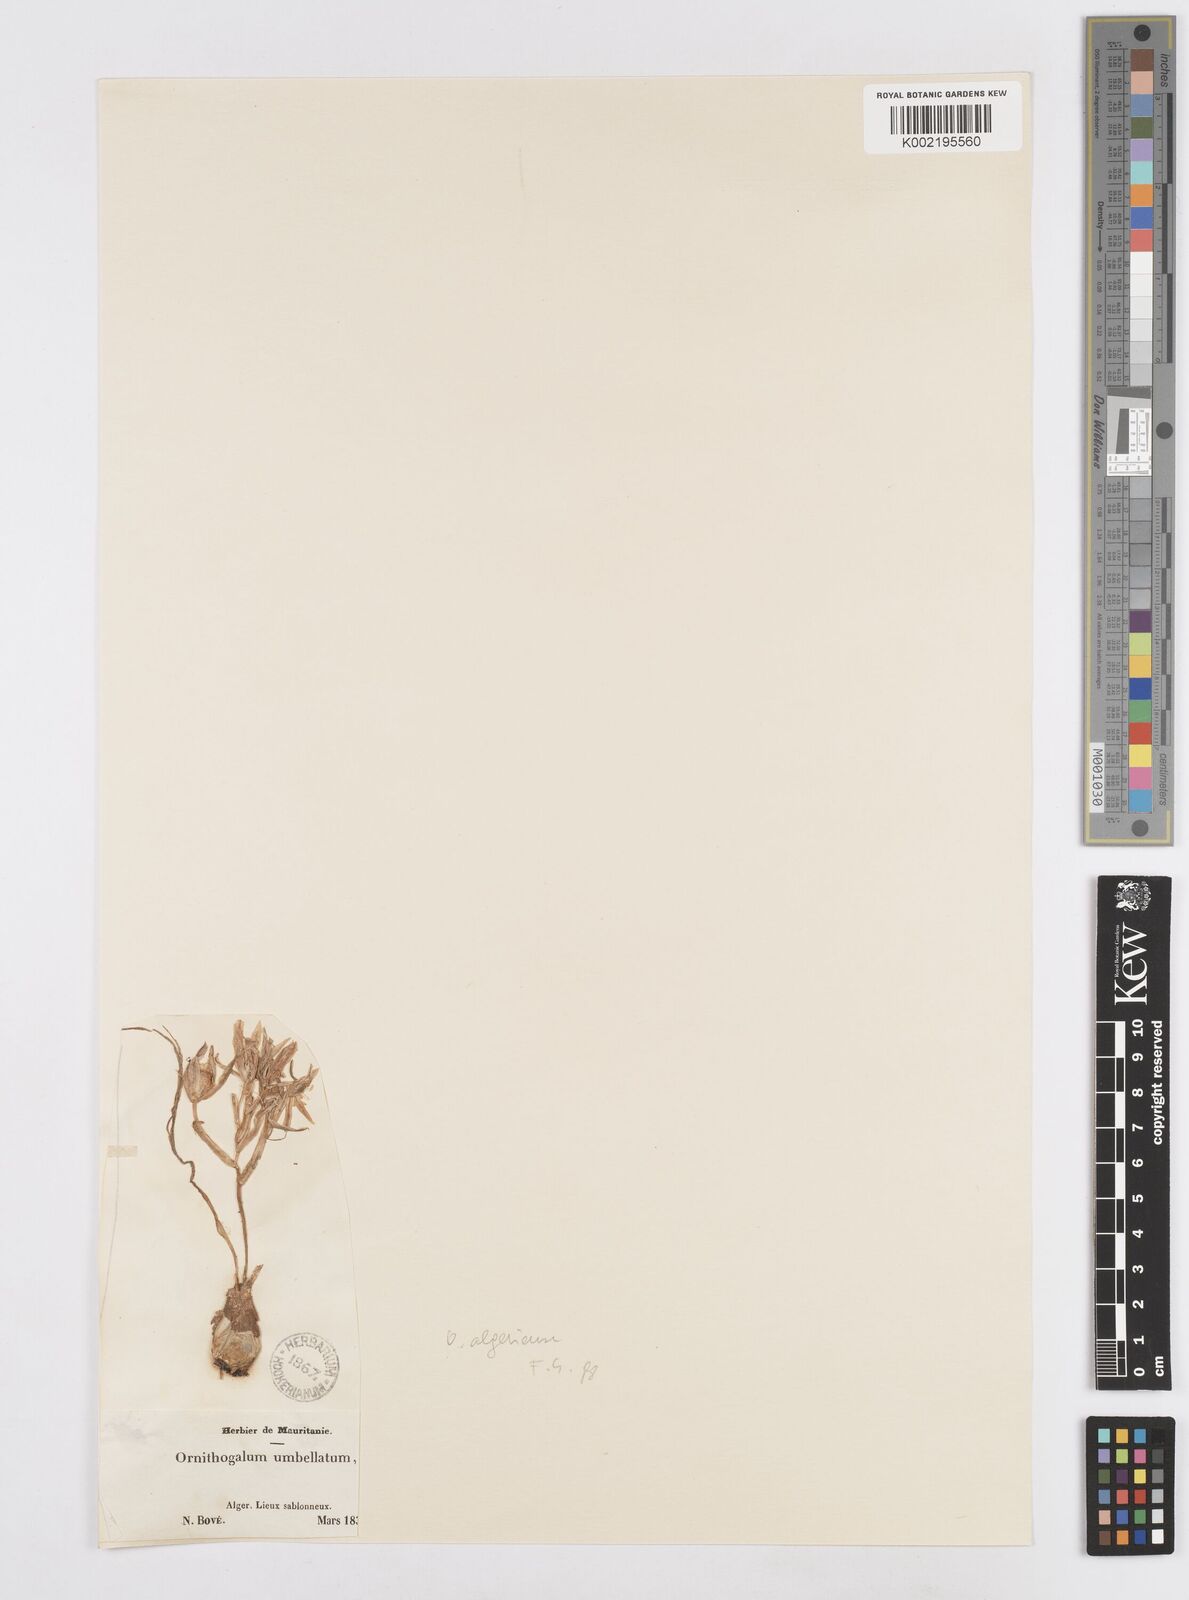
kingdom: Plantae
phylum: Tracheophyta
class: Liliopsida
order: Asparagales
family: Asparagaceae
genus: Ornithogalum
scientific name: Ornithogalum umbellatum
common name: Garden star-of-bethlehem
